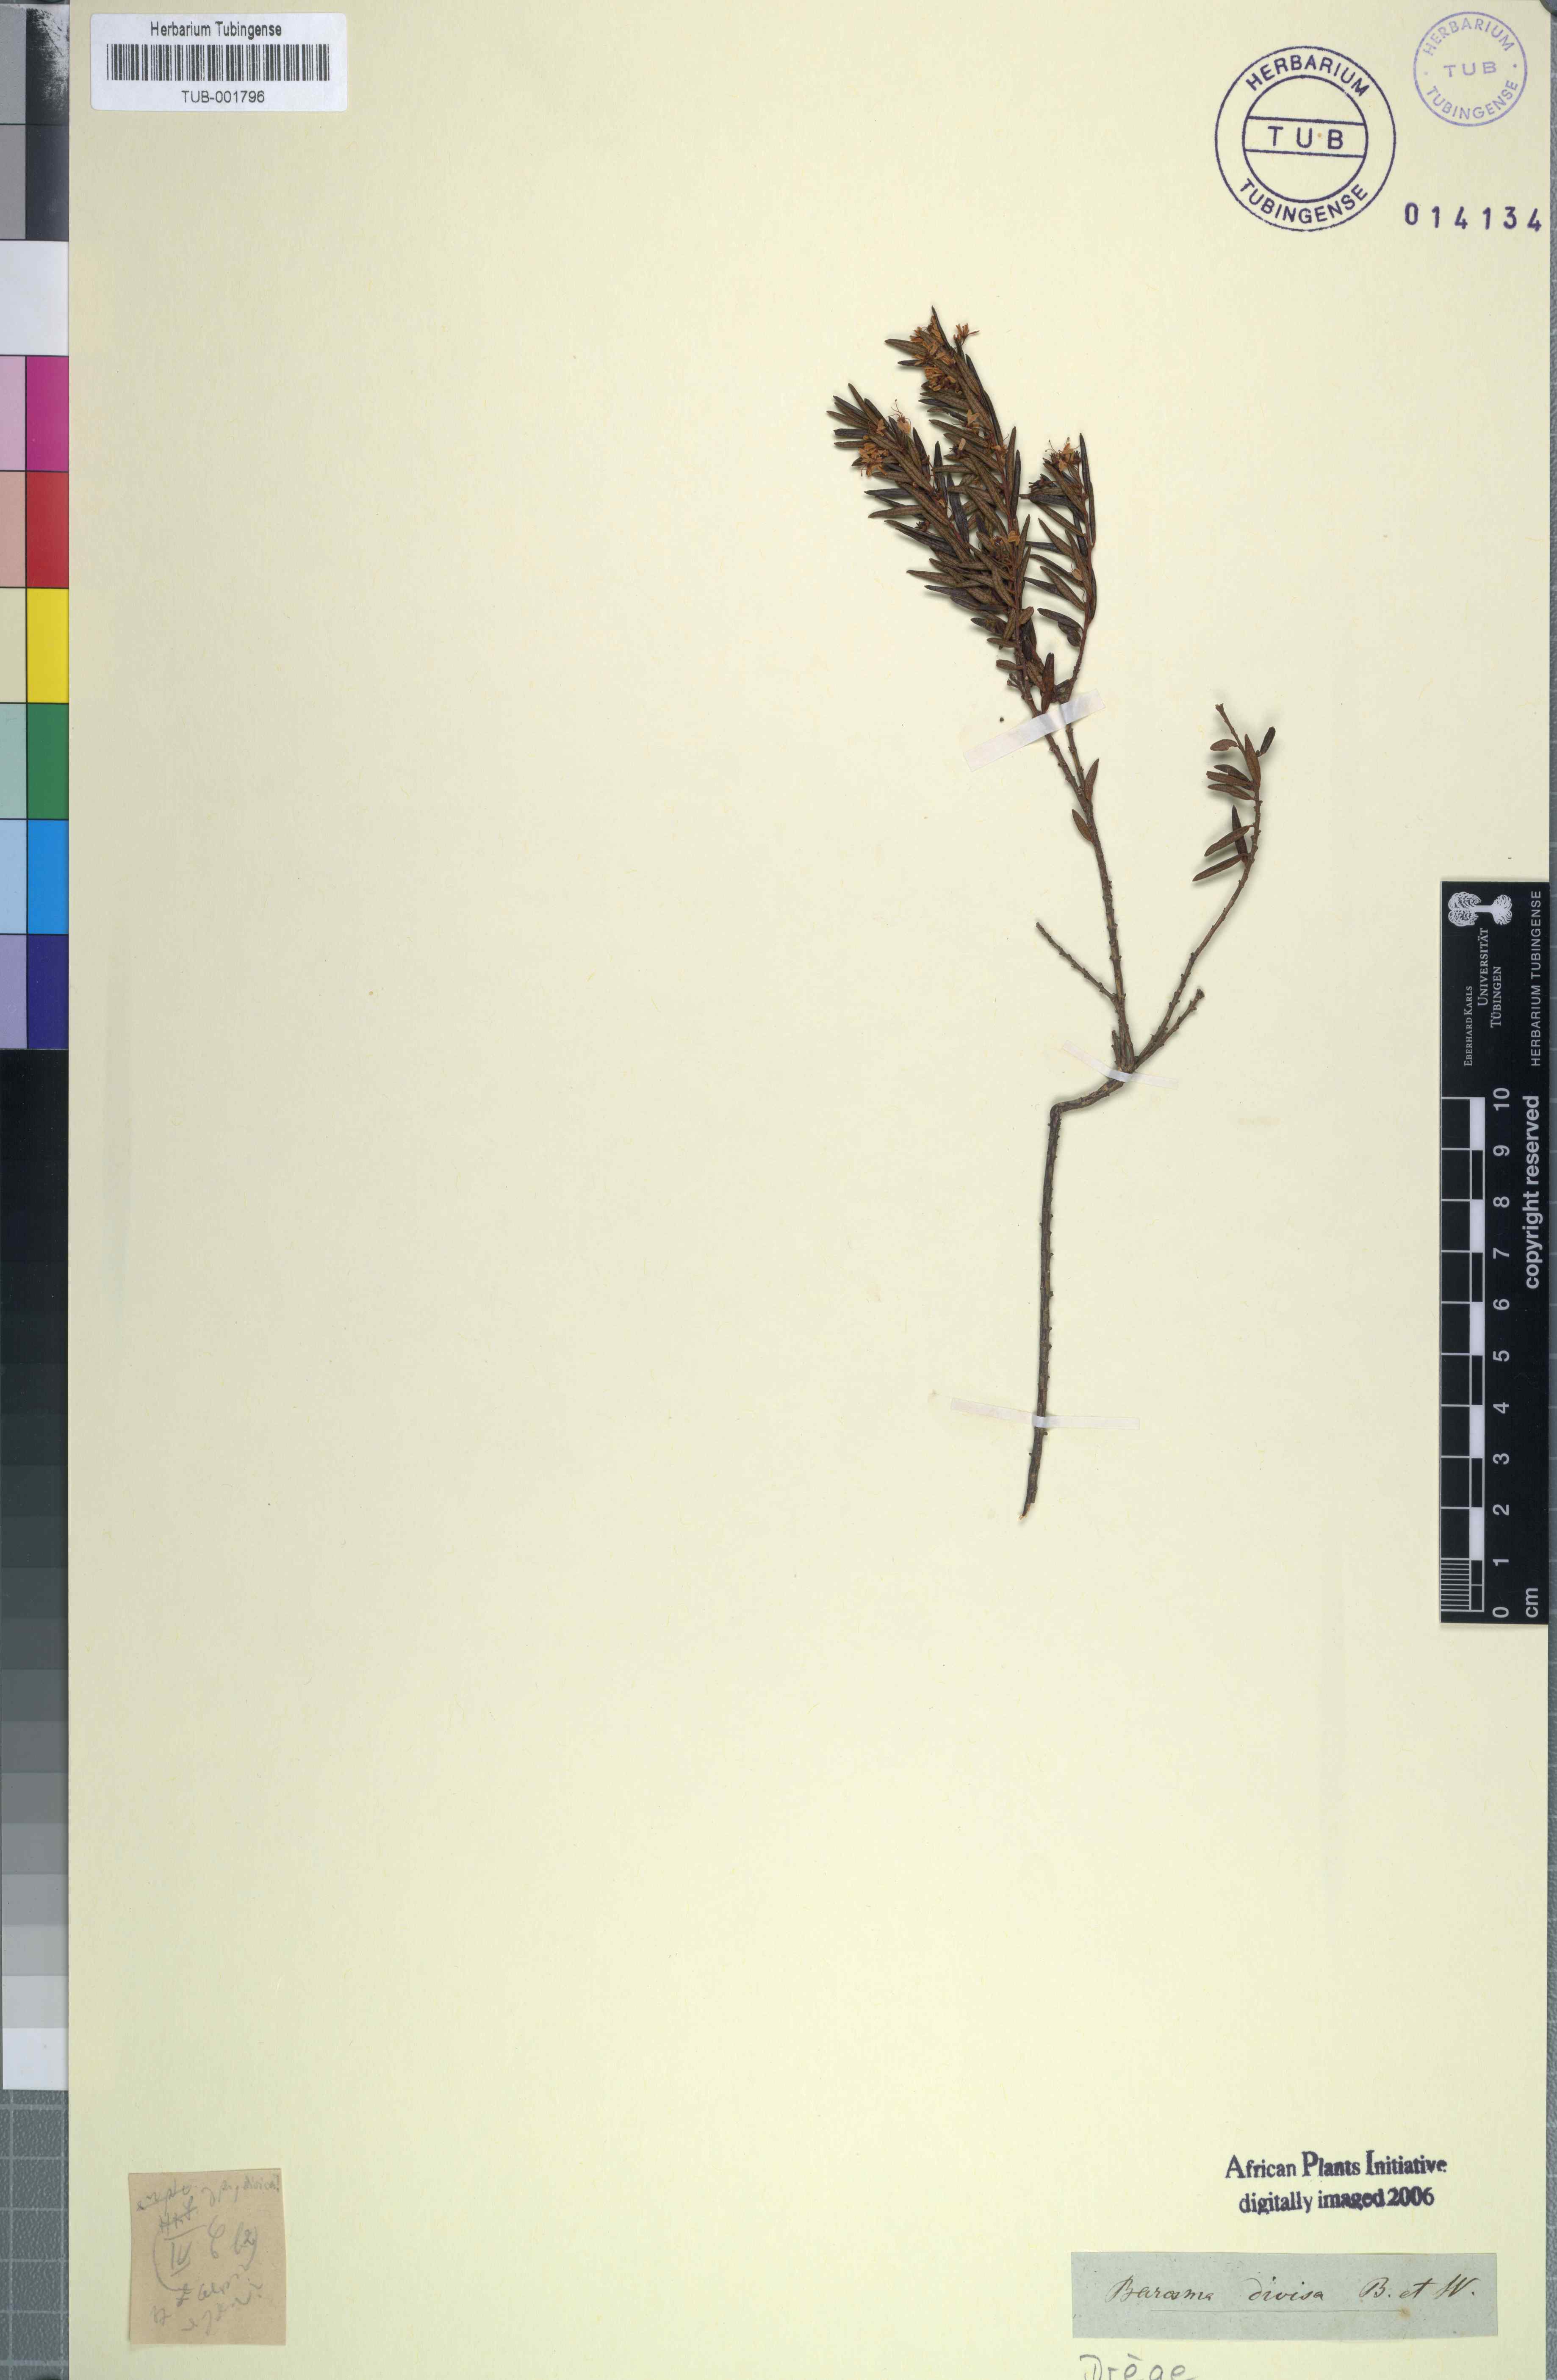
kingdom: Plantae
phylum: Tracheophyta
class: Magnoliopsida
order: Sapindales
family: Rutaceae
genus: Agathosma
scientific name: Agathosma
